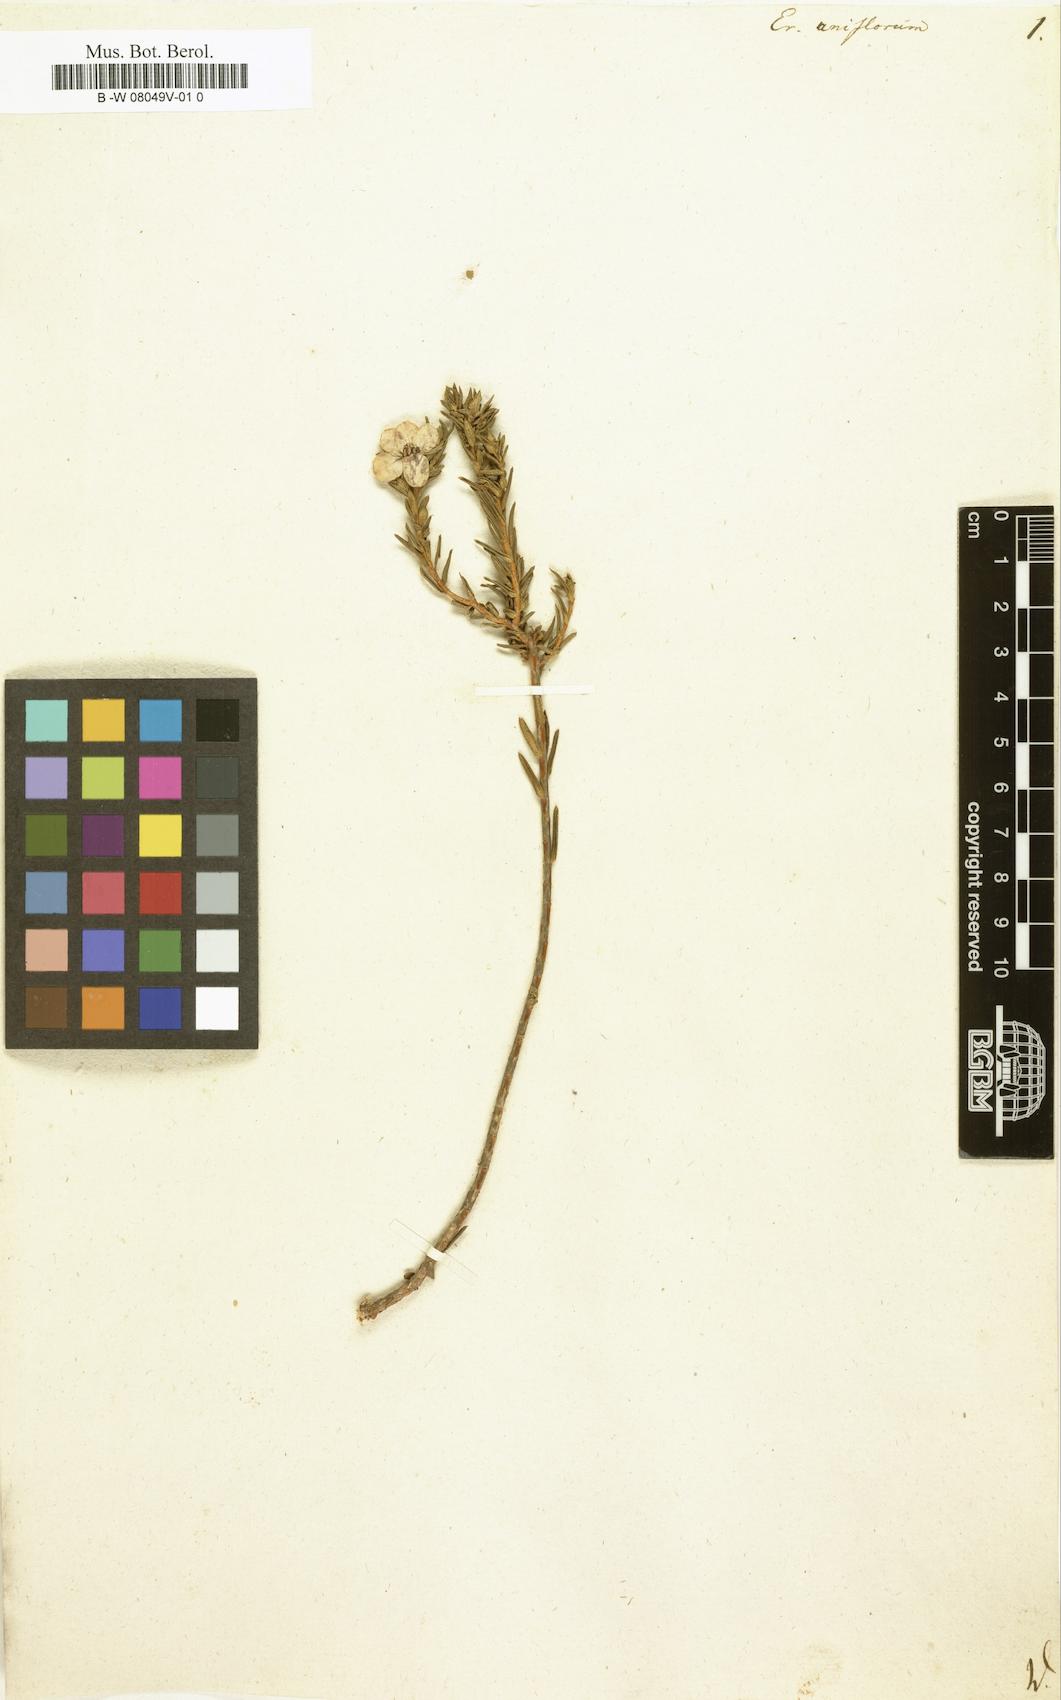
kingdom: Plantae
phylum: Tracheophyta
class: Magnoliopsida
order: Sapindales
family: Rutaceae
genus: Adenandra
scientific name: Adenandra uniflora
